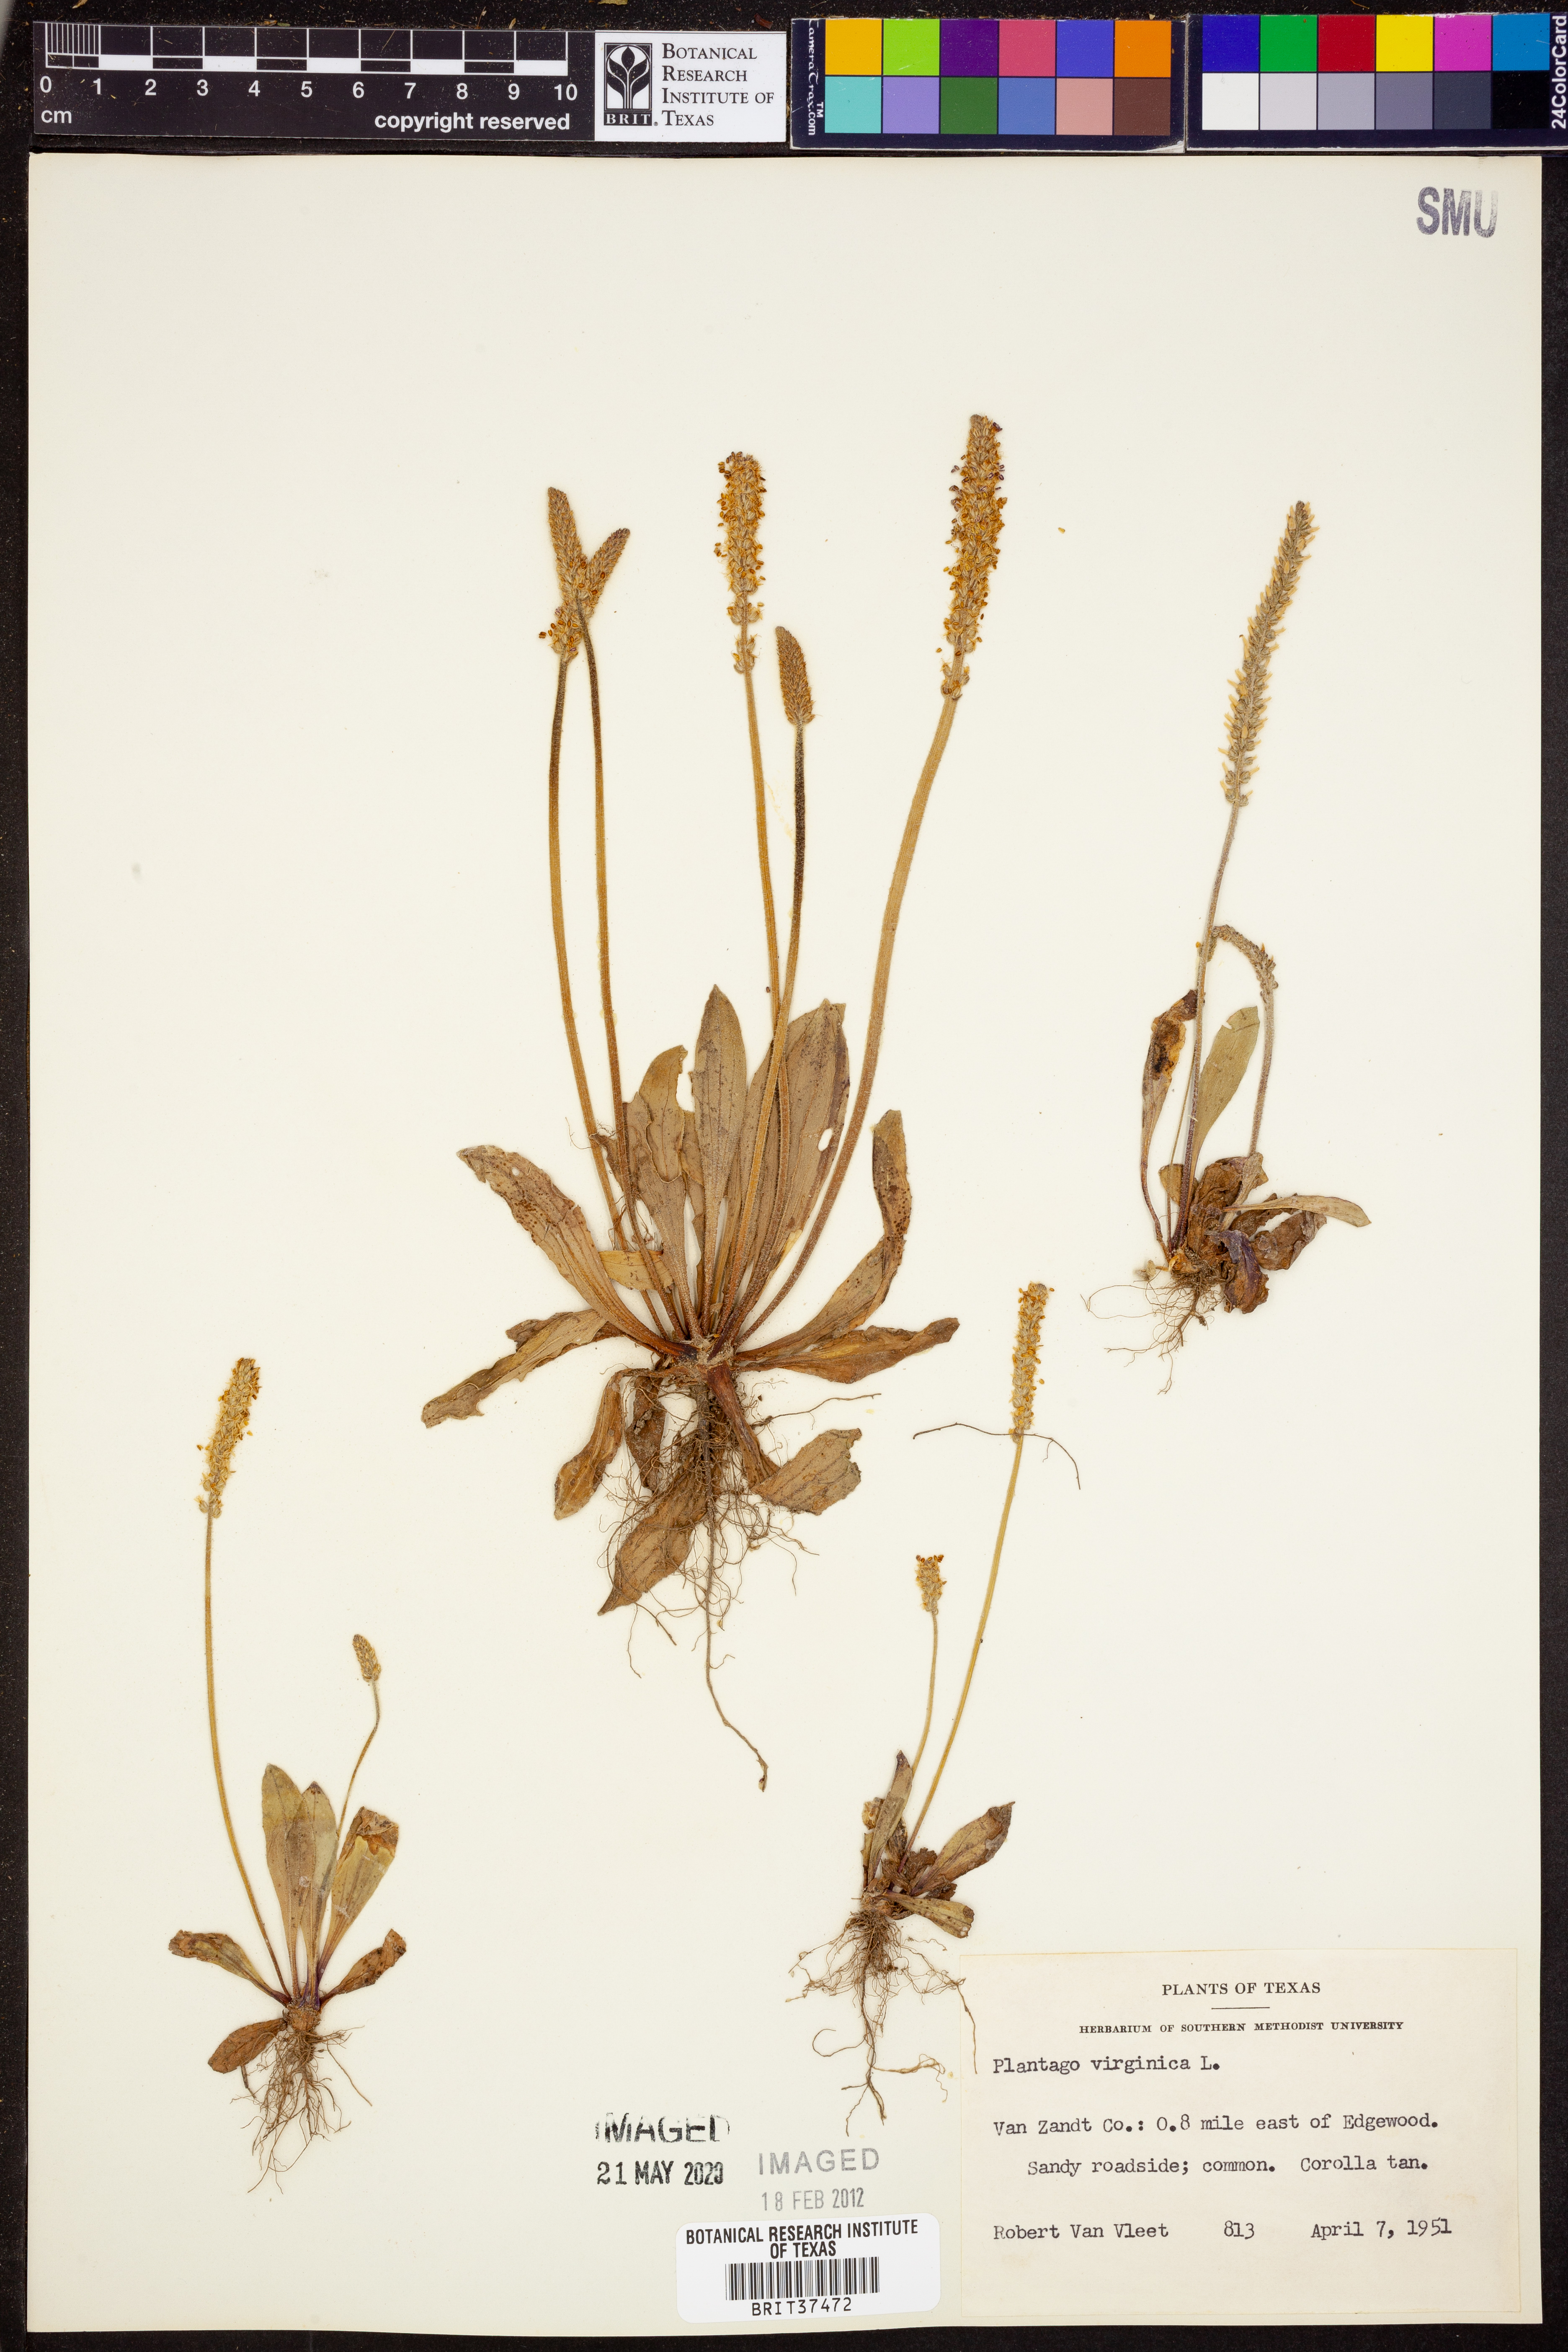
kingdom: Plantae
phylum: Tracheophyta
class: Magnoliopsida
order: Lamiales
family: Plantaginaceae
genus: Plantago
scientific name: Plantago virginica
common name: Hoary plantain
